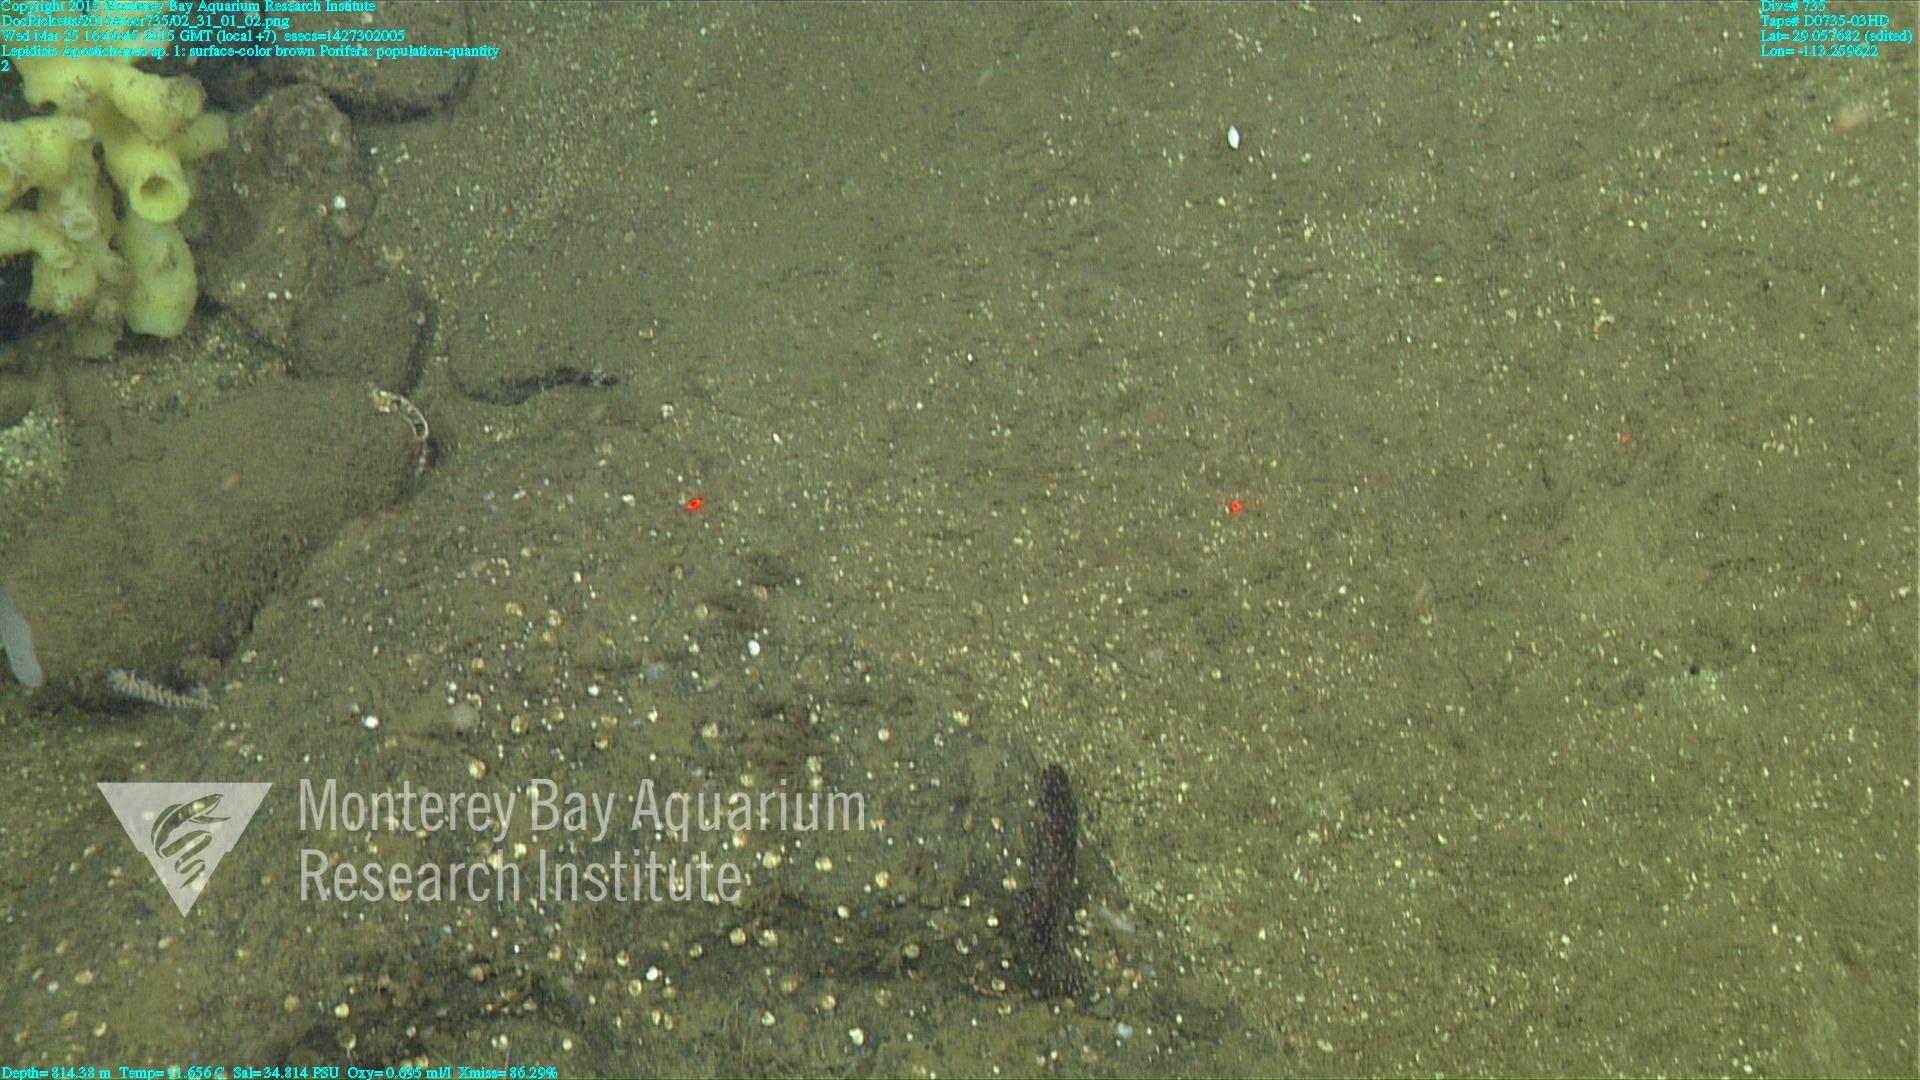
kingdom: Animalia
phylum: Cnidaria
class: Anthozoa
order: Scleralcyonacea
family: Keratoisididae
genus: Lepidisis
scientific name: Lepidisis
